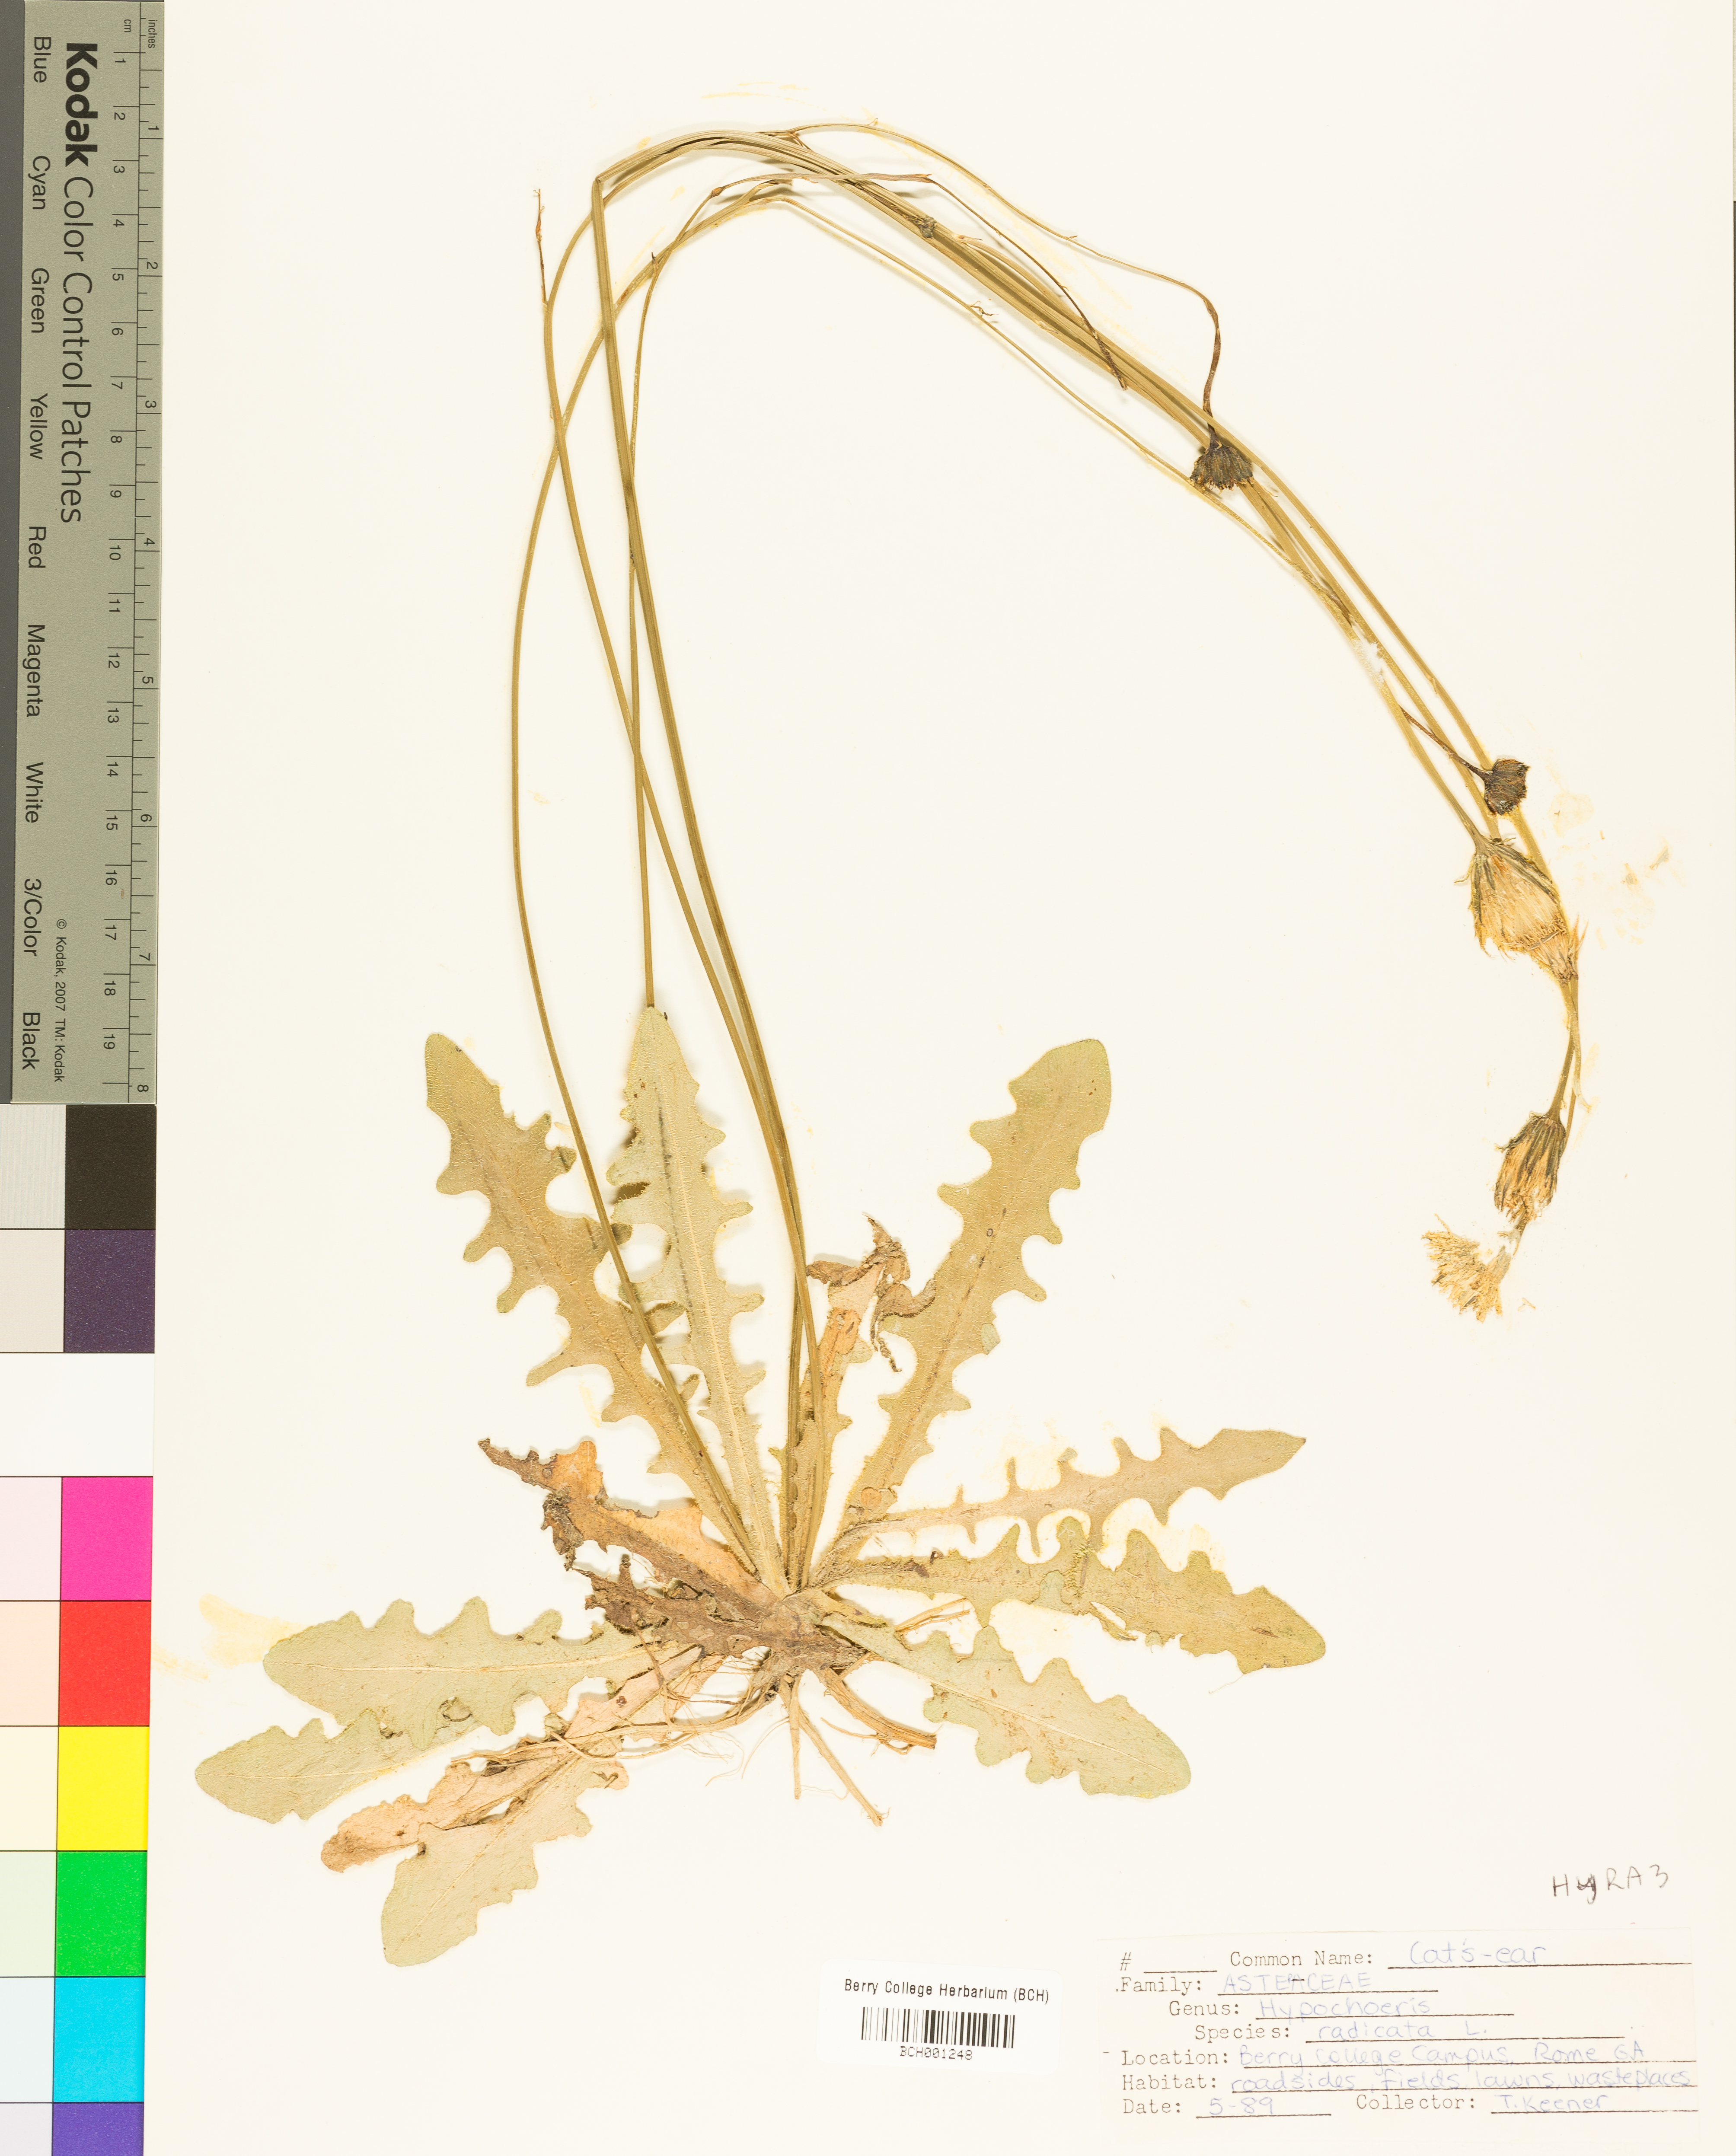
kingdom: Plantae
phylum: Tracheophyta
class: Magnoliopsida
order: Asterales
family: Asteraceae
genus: Hypochaeris
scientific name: Hypochaeris radicata
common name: Flatweed
